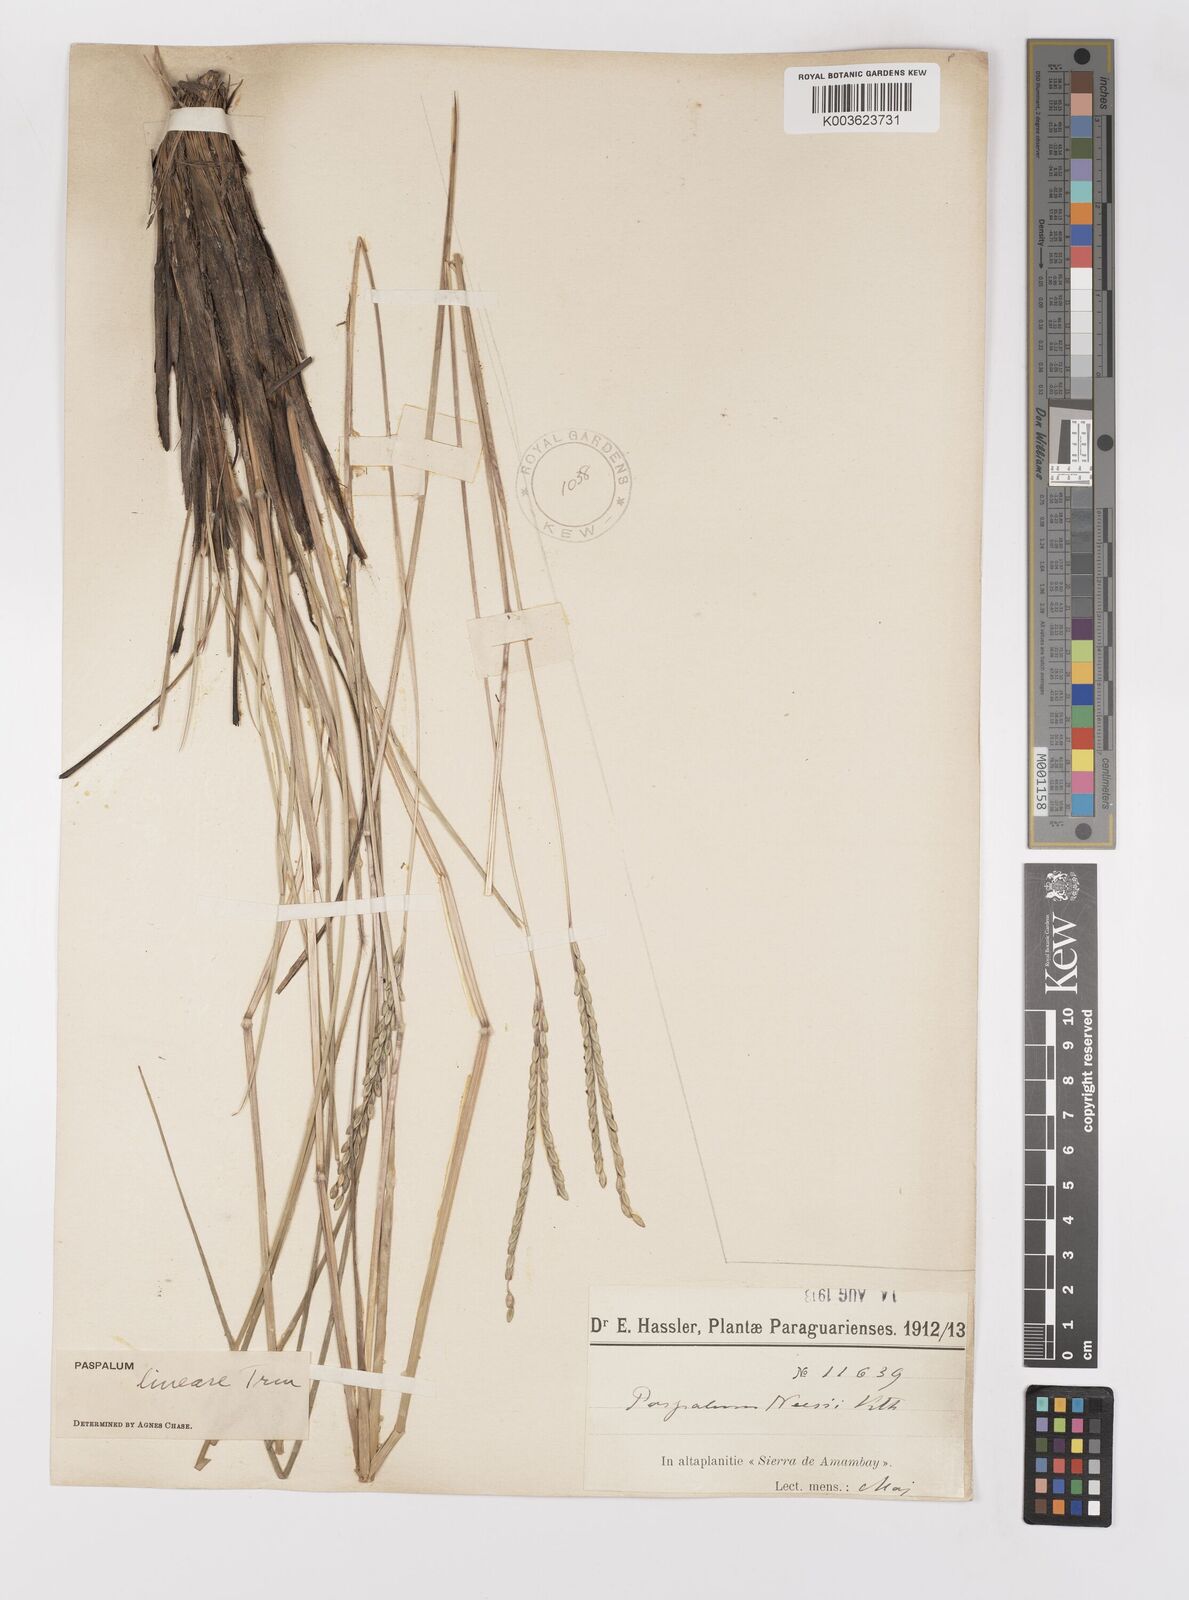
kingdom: Plantae
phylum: Tracheophyta
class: Liliopsida
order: Poales
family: Poaceae
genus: Paspalum
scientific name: Paspalum lineare
